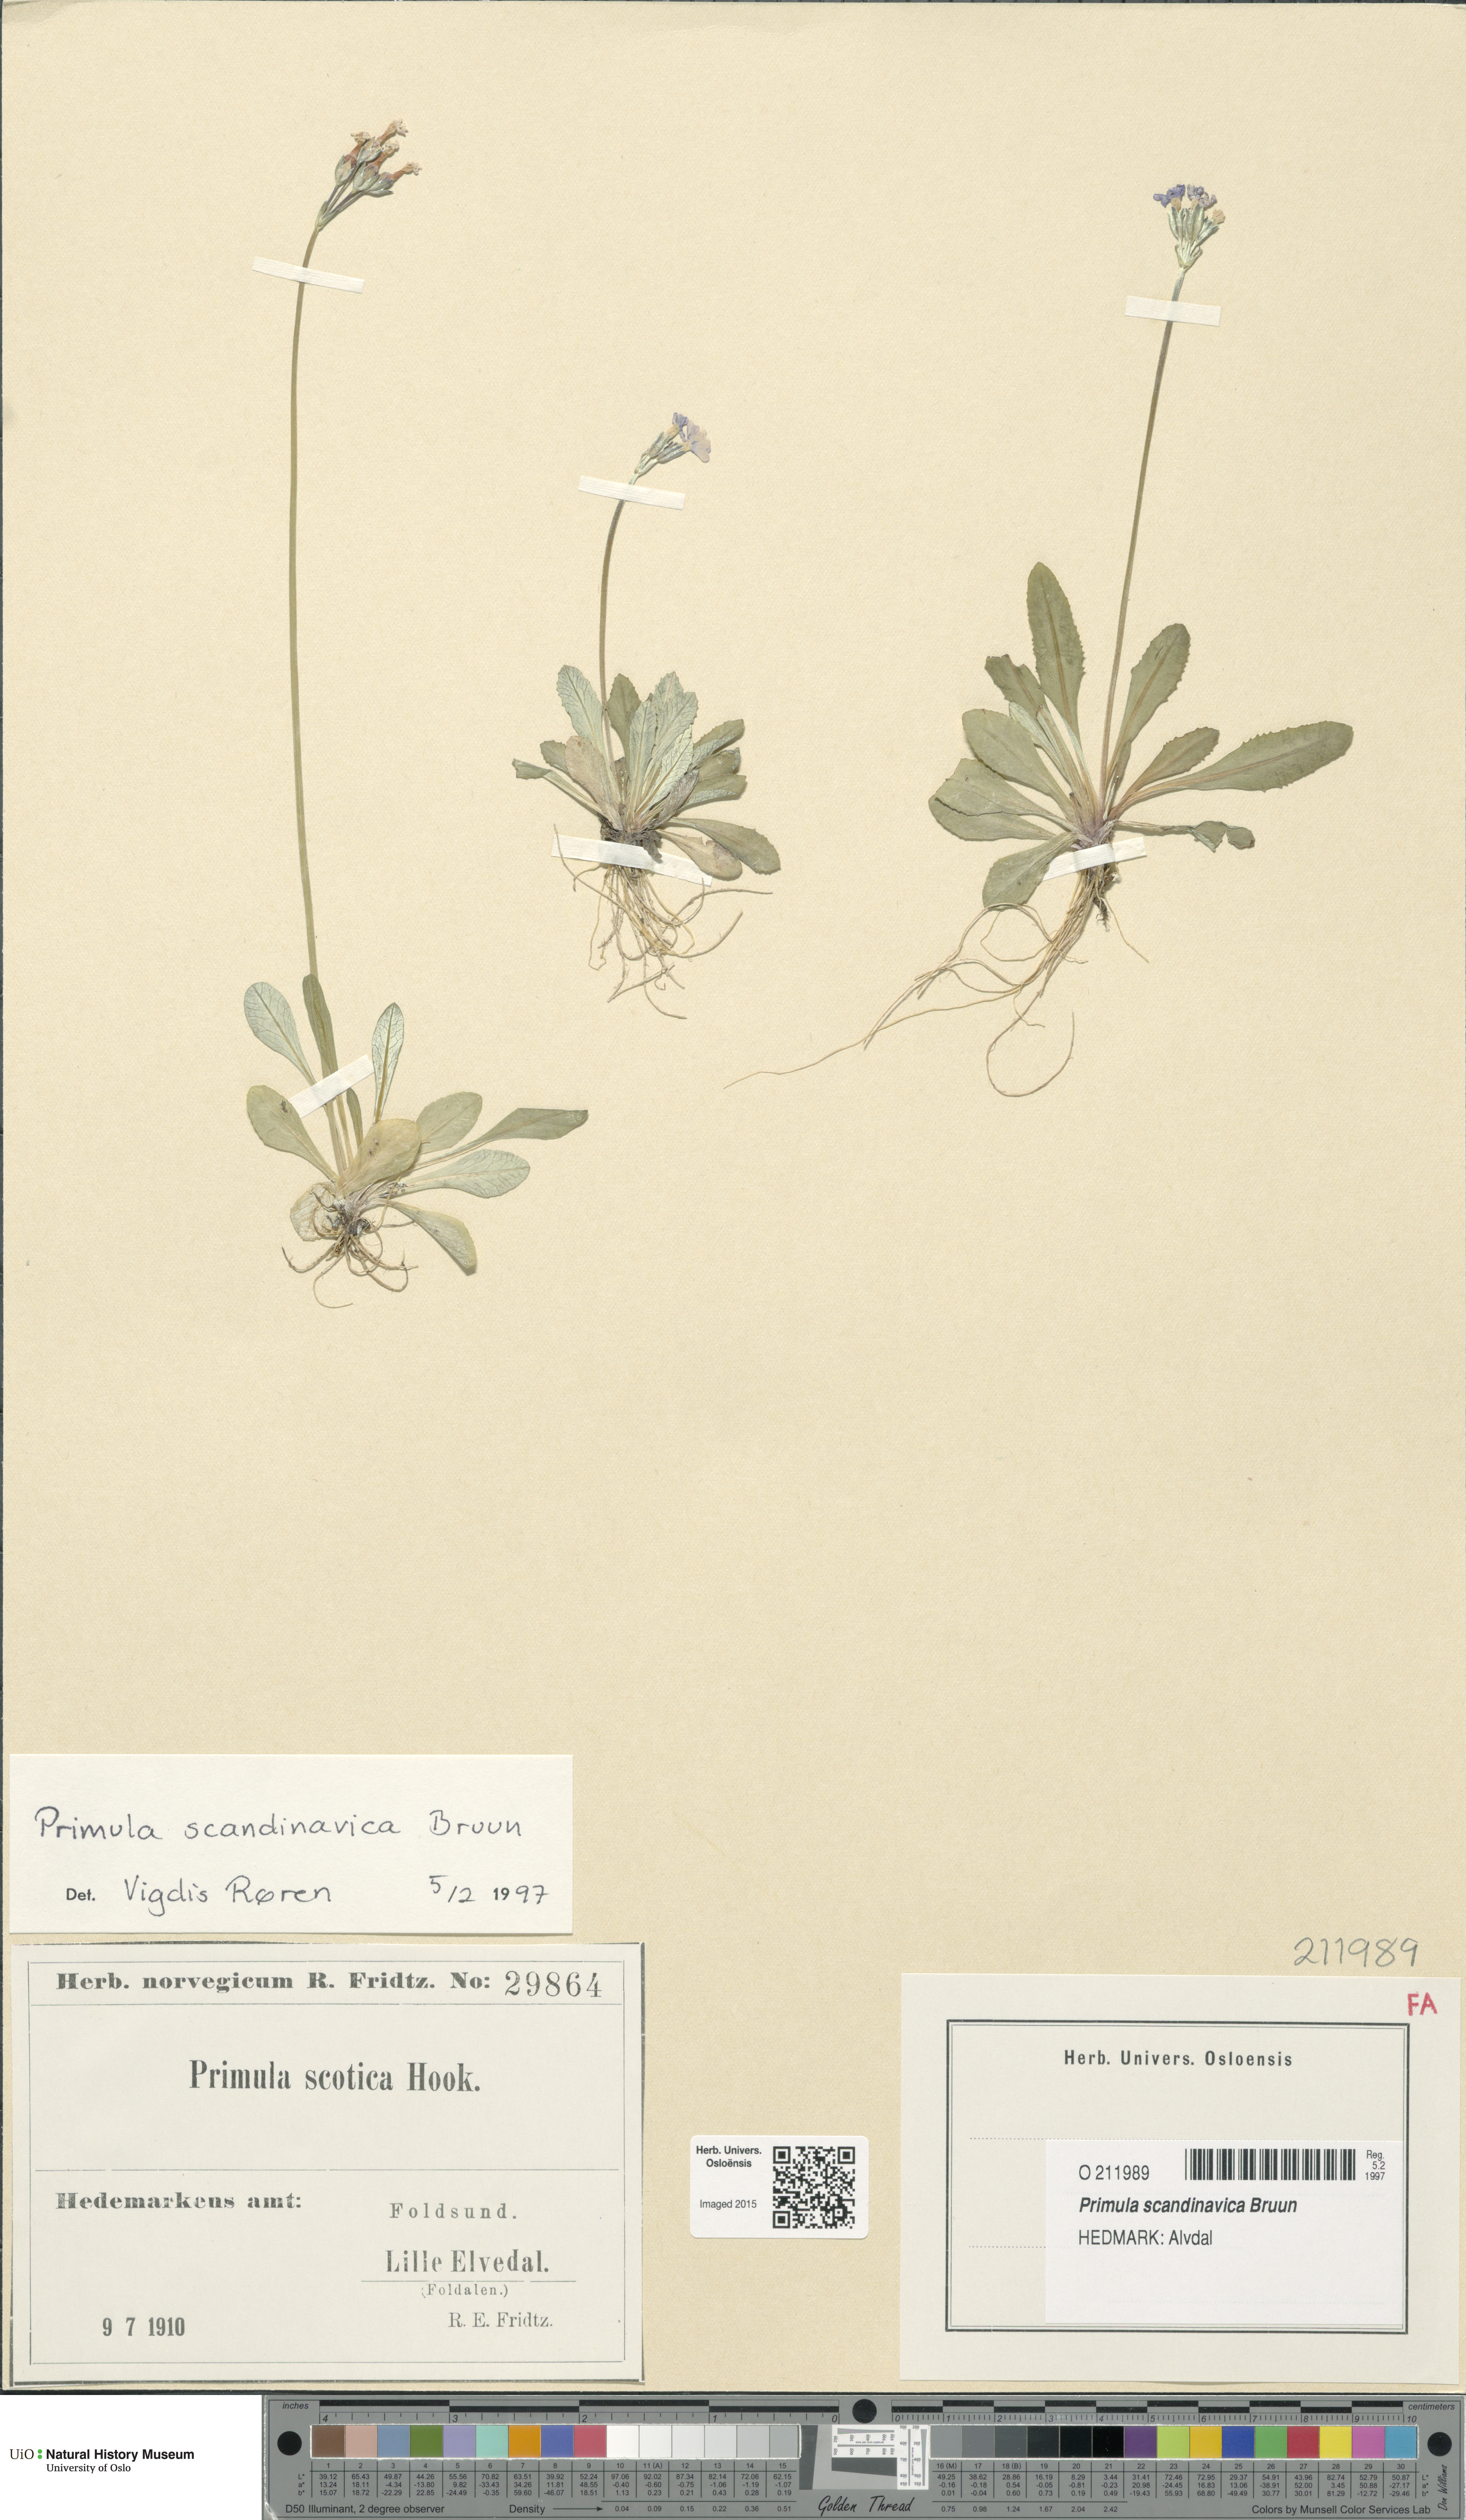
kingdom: Plantae
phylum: Tracheophyta
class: Magnoliopsida
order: Ericales
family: Primulaceae
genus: Primula
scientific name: Primula scandinavica
